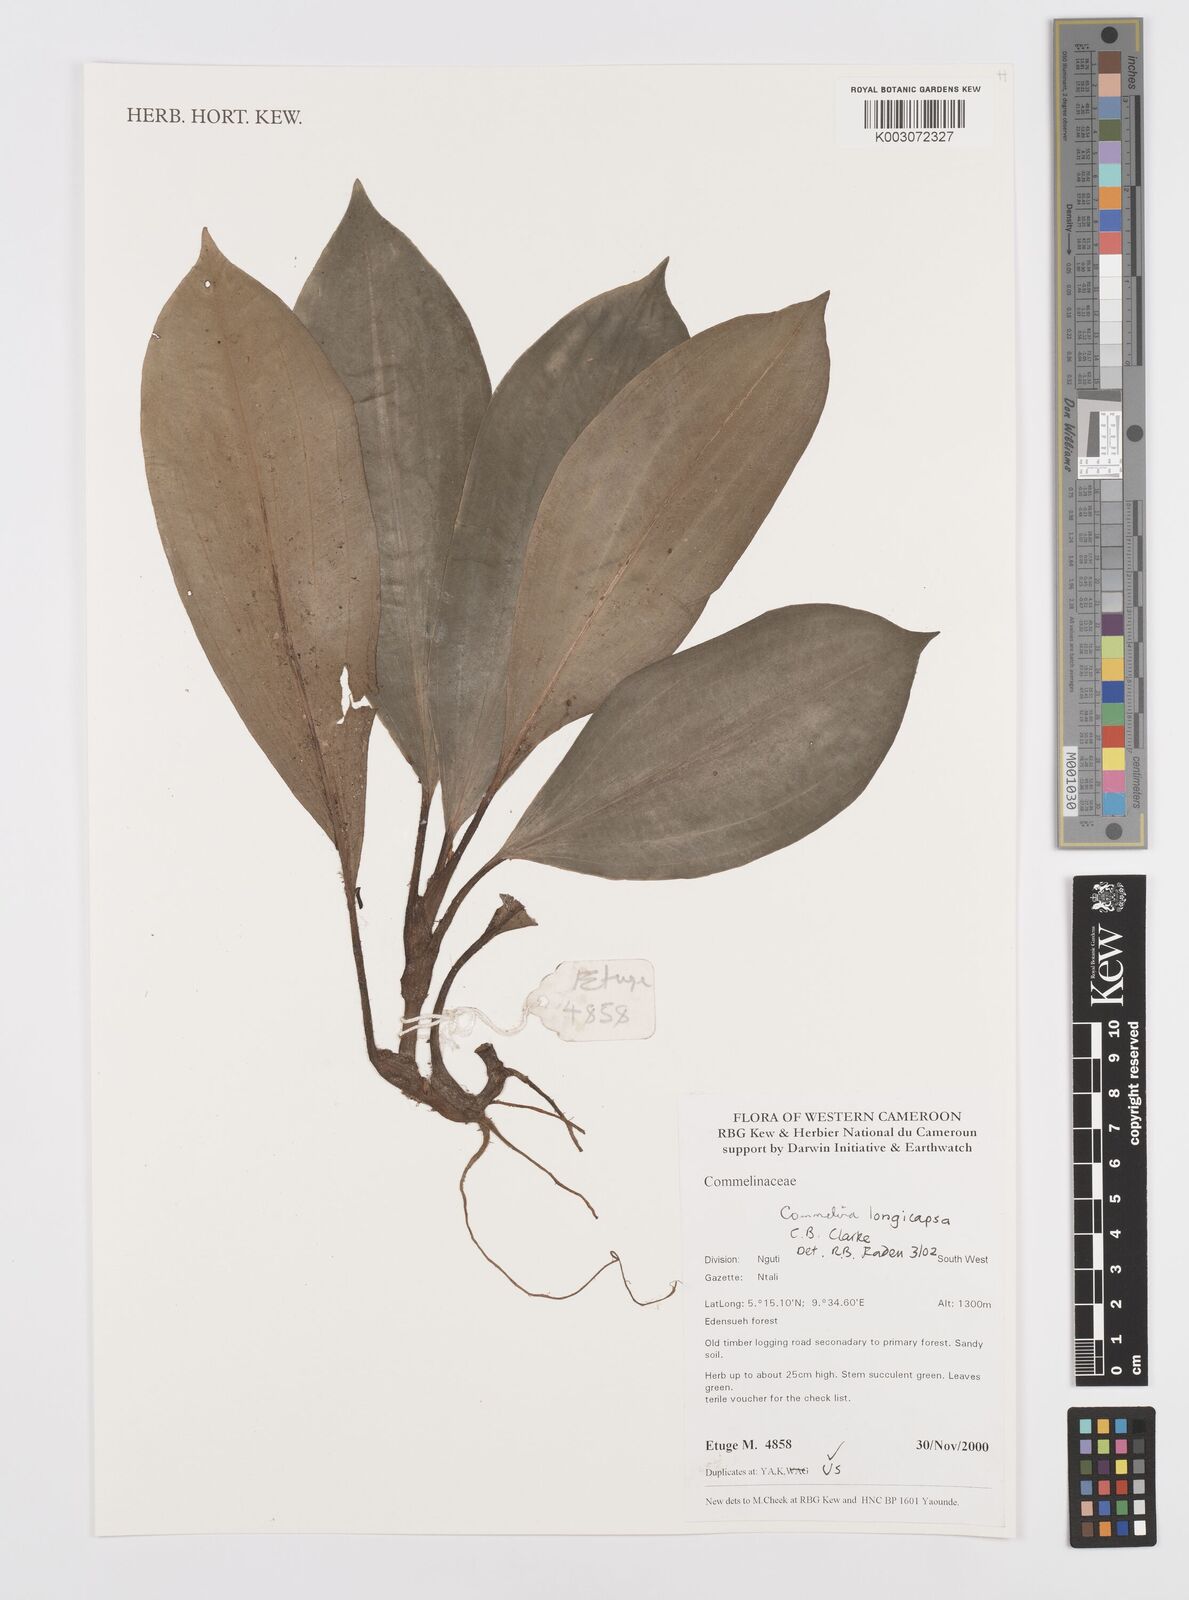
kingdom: Plantae
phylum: Tracheophyta
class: Liliopsida
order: Commelinales
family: Commelinaceae
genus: Commelina
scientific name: Commelina longicapsa
